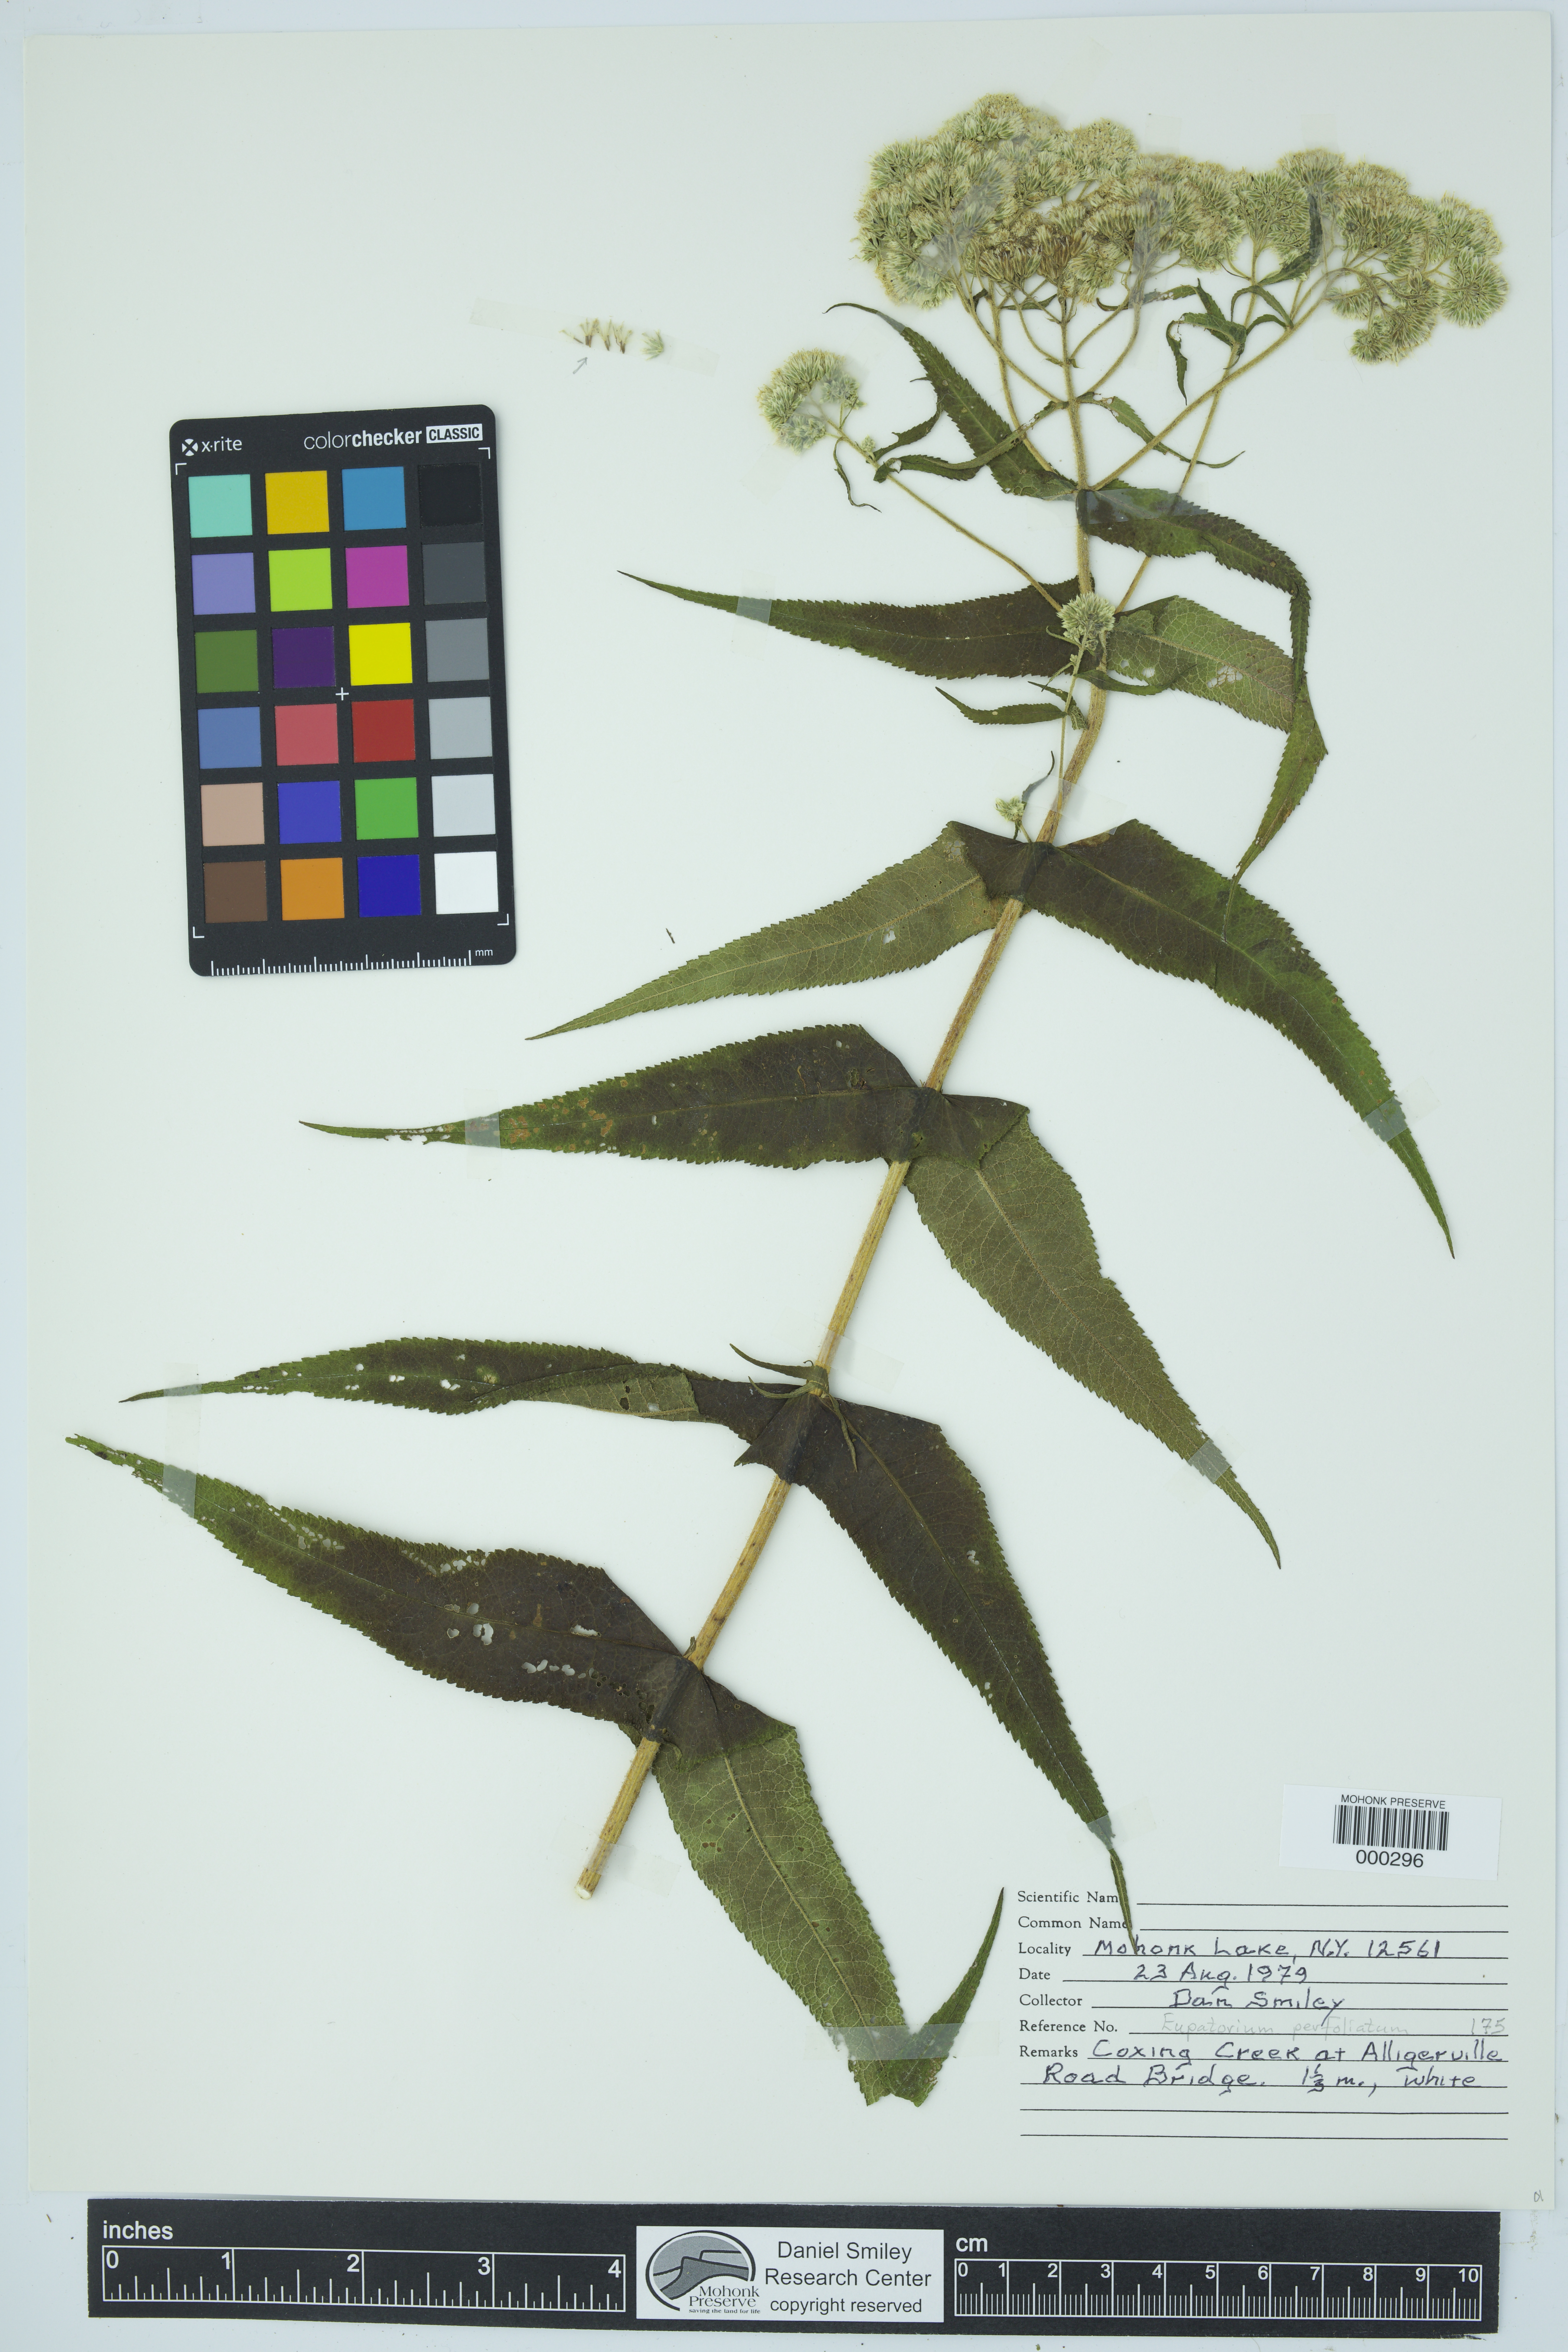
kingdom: Plantae
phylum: Tracheophyta
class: Magnoliopsida
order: Asterales
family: Asteraceae
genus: Eupatorium
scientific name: Eupatorium perfoliatum
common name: Boneset
